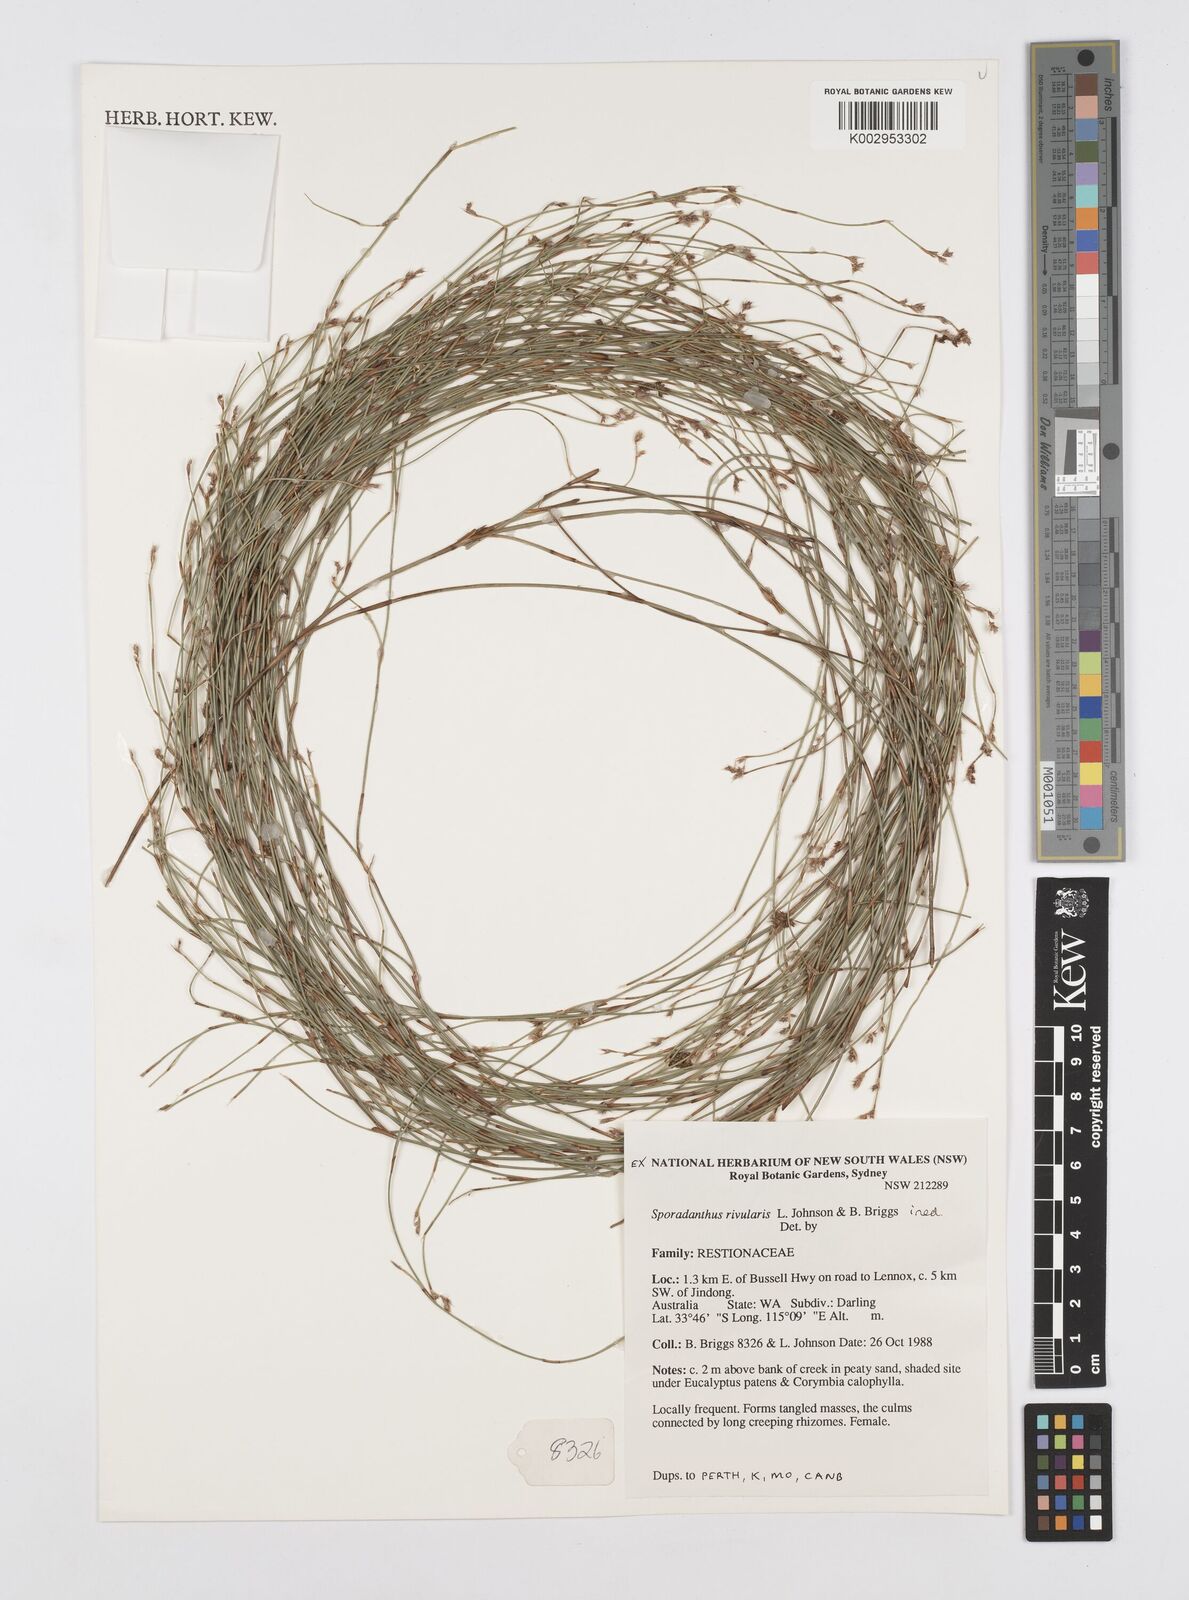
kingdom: Plantae
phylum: Tracheophyta
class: Liliopsida
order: Poales
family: Restionaceae
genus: Sporadanthus
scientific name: Sporadanthus rivularis
